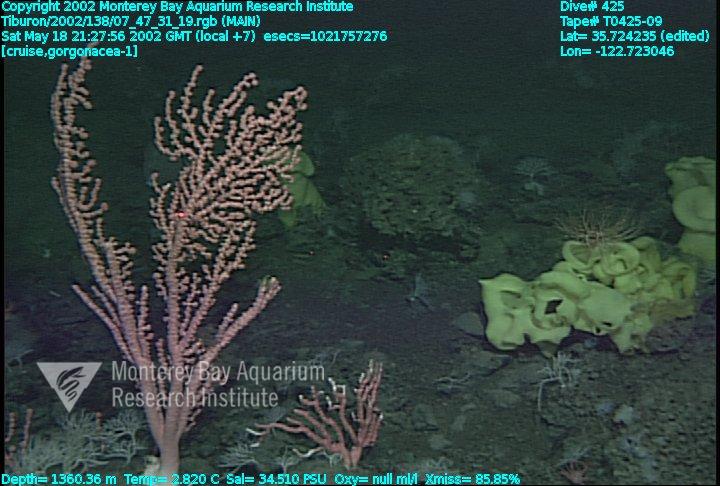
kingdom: Animalia
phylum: Porifera
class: Hexactinellida
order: Sceptrulophora
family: Farreidae
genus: Farrea
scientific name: Farrea occa
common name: Reversed glass sponge
